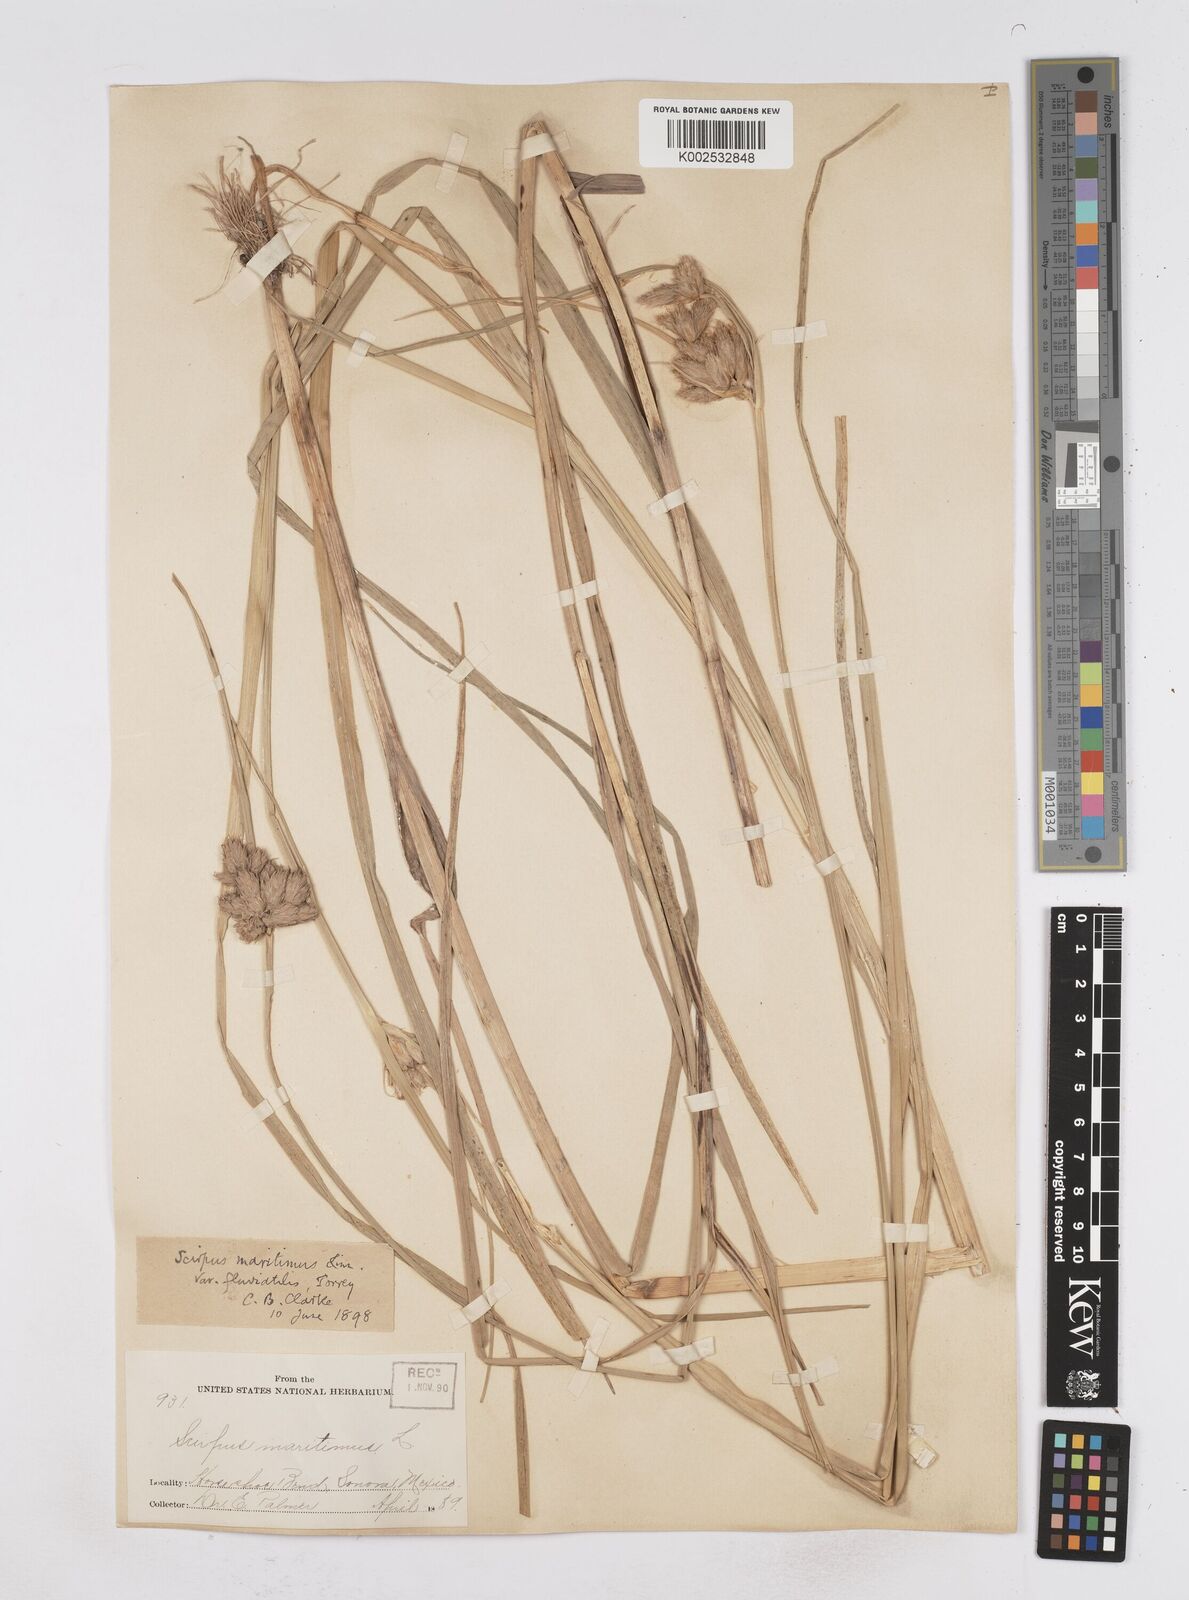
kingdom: Plantae
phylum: Tracheophyta
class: Liliopsida
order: Poales
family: Cyperaceae
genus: Bolboschoenus
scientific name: Bolboschoenus maritimus
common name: Sea club-rush
